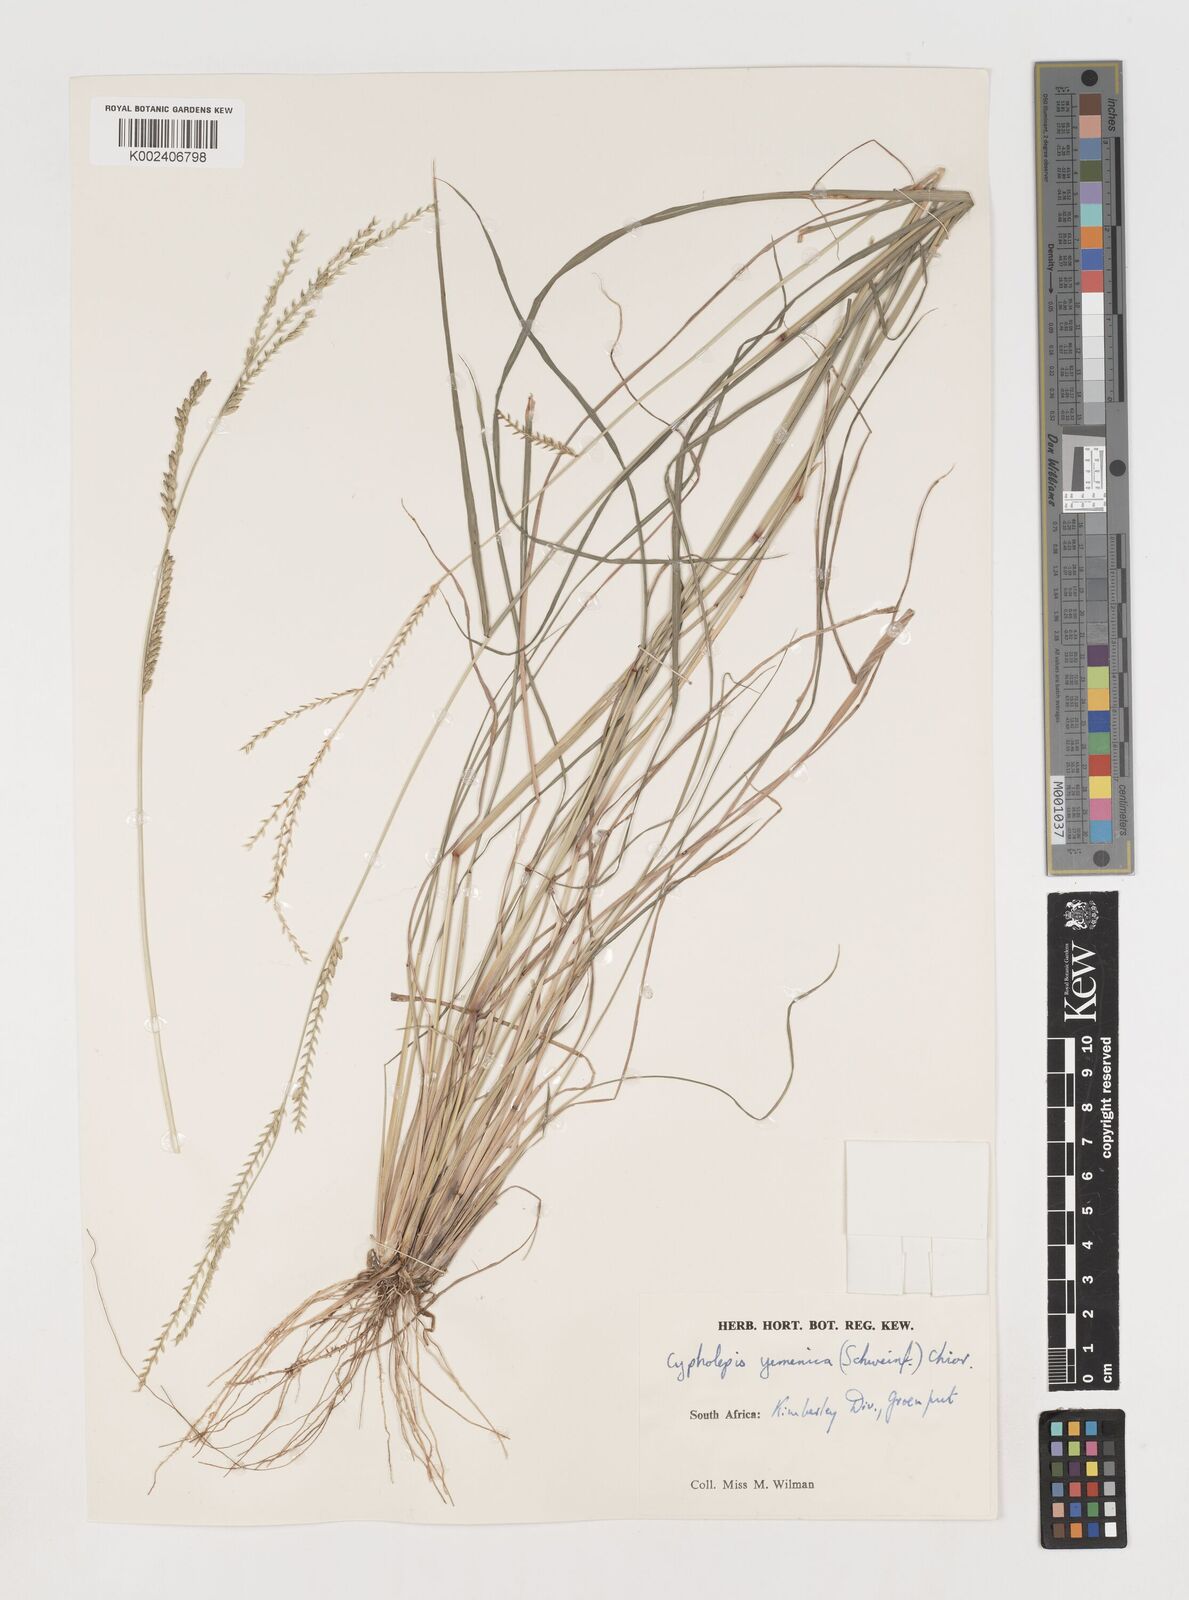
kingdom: Plantae
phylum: Tracheophyta
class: Liliopsida
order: Poales
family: Poaceae
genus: Disakisperma
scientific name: Disakisperma yemenicum
